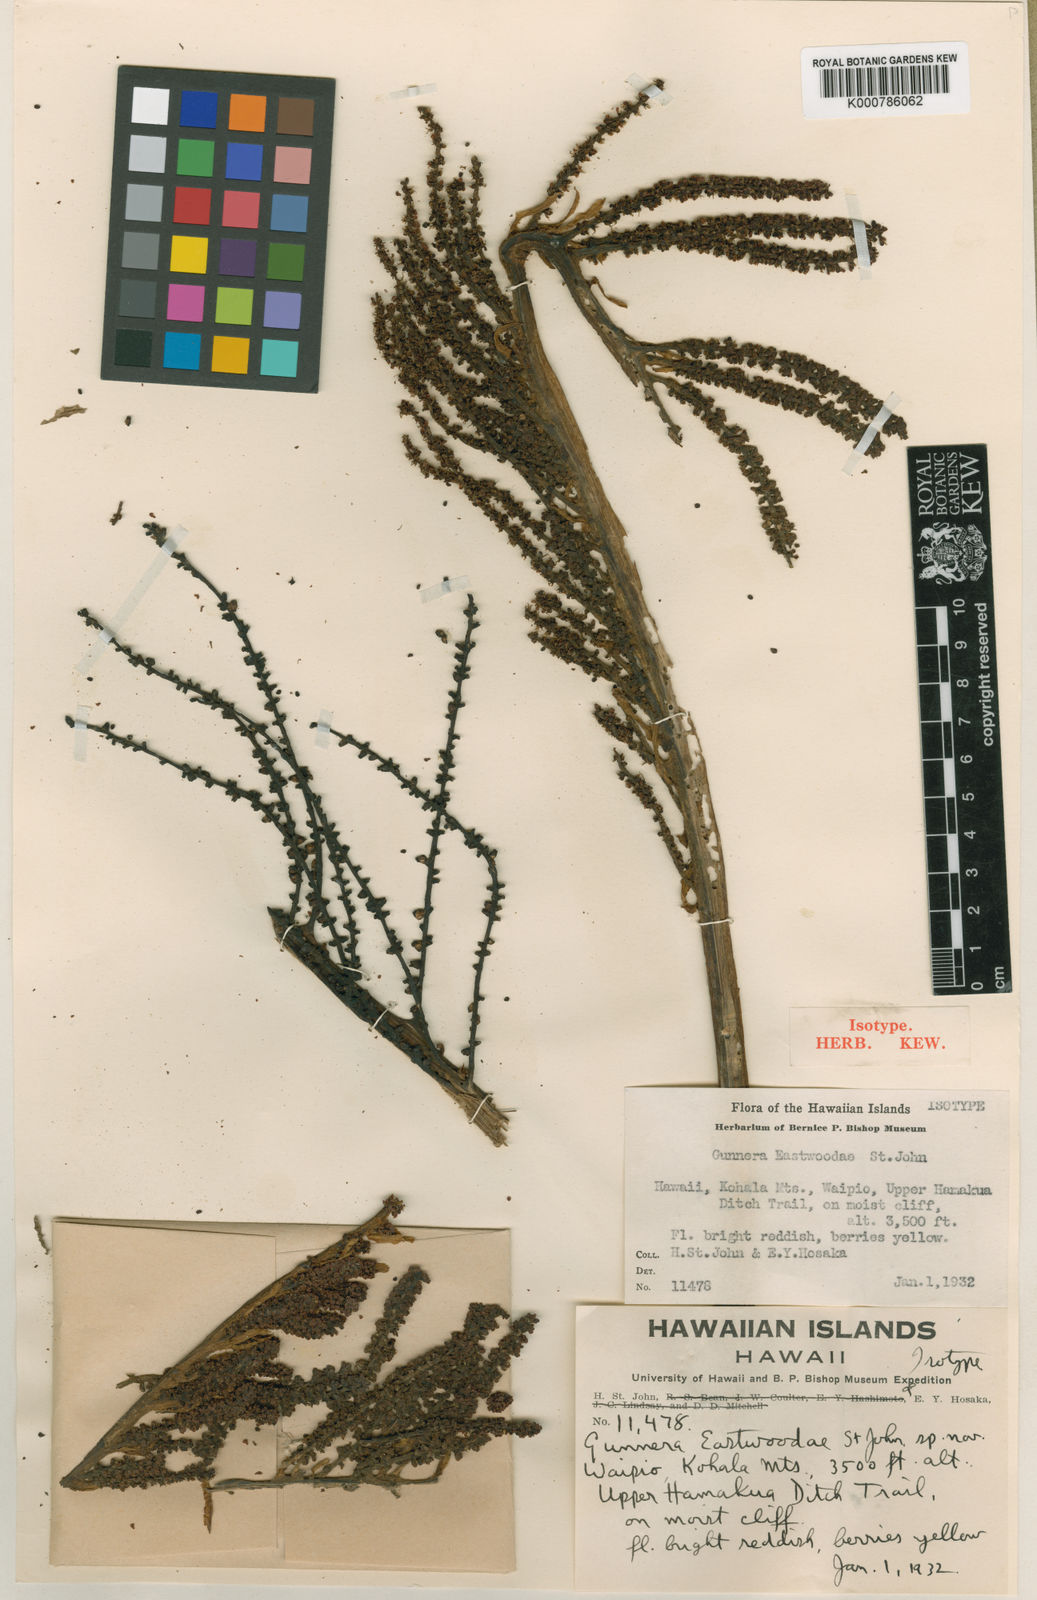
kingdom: Plantae
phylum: Tracheophyta
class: Magnoliopsida
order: Gunnerales
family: Gunneraceae
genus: Gunnera
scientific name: Gunnera petaloidea
